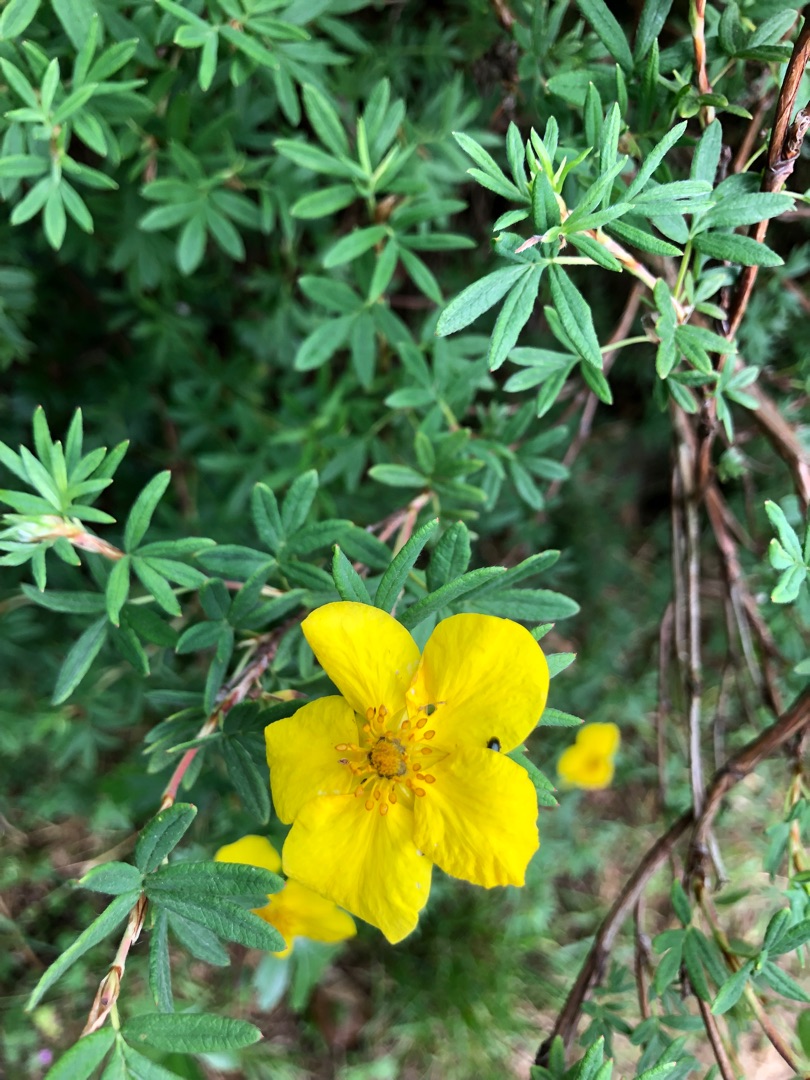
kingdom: Plantae
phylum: Tracheophyta
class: Magnoliopsida
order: Rosales
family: Rosaceae
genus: Dasiphora
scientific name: Dasiphora fruticosa
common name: Buskpotentil
